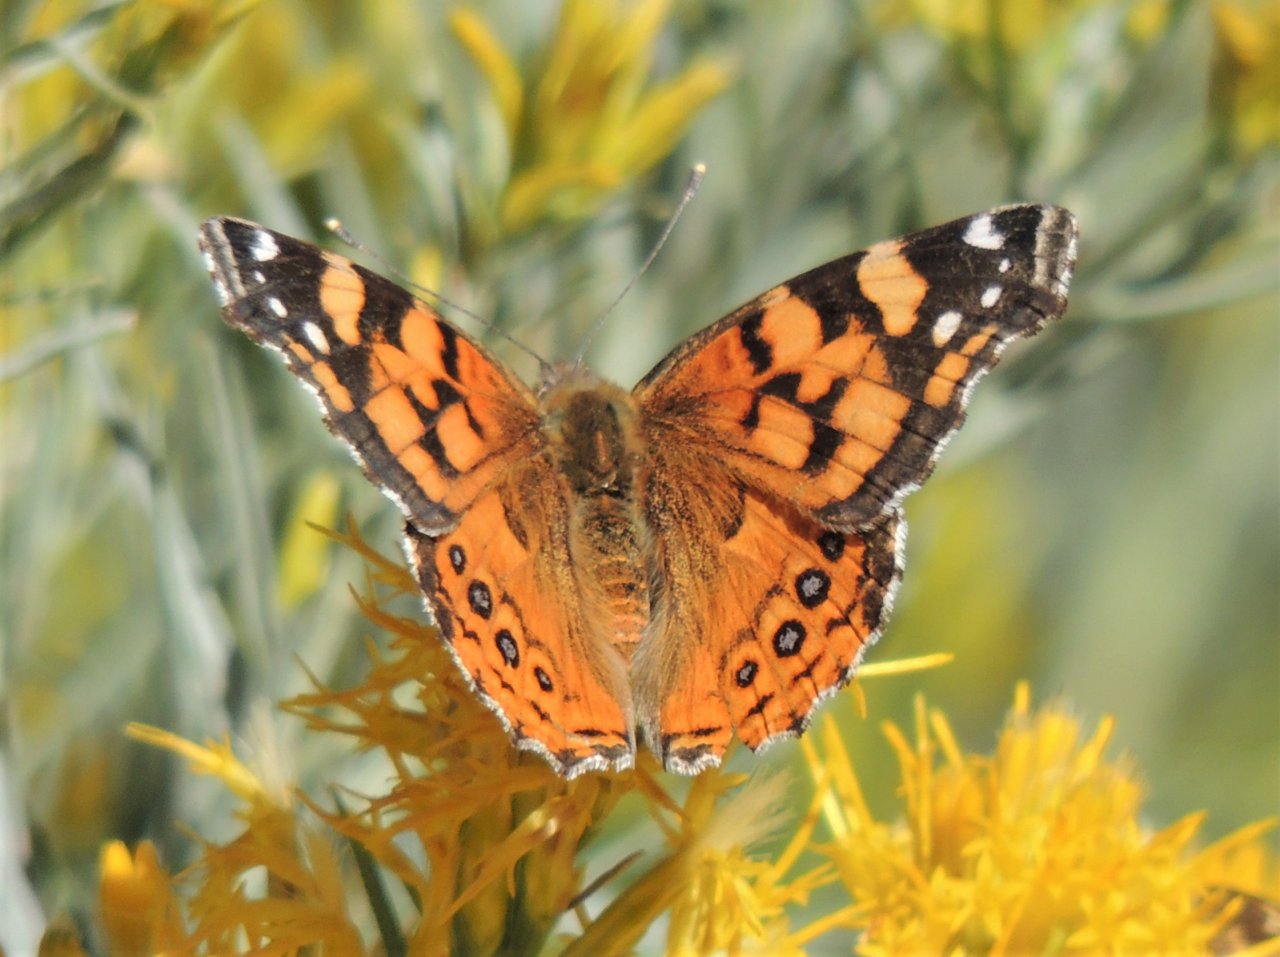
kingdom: Animalia
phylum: Arthropoda
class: Insecta
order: Lepidoptera
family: Nymphalidae
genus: Vanessa
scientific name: Vanessa annabella
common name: West Coast Lady
